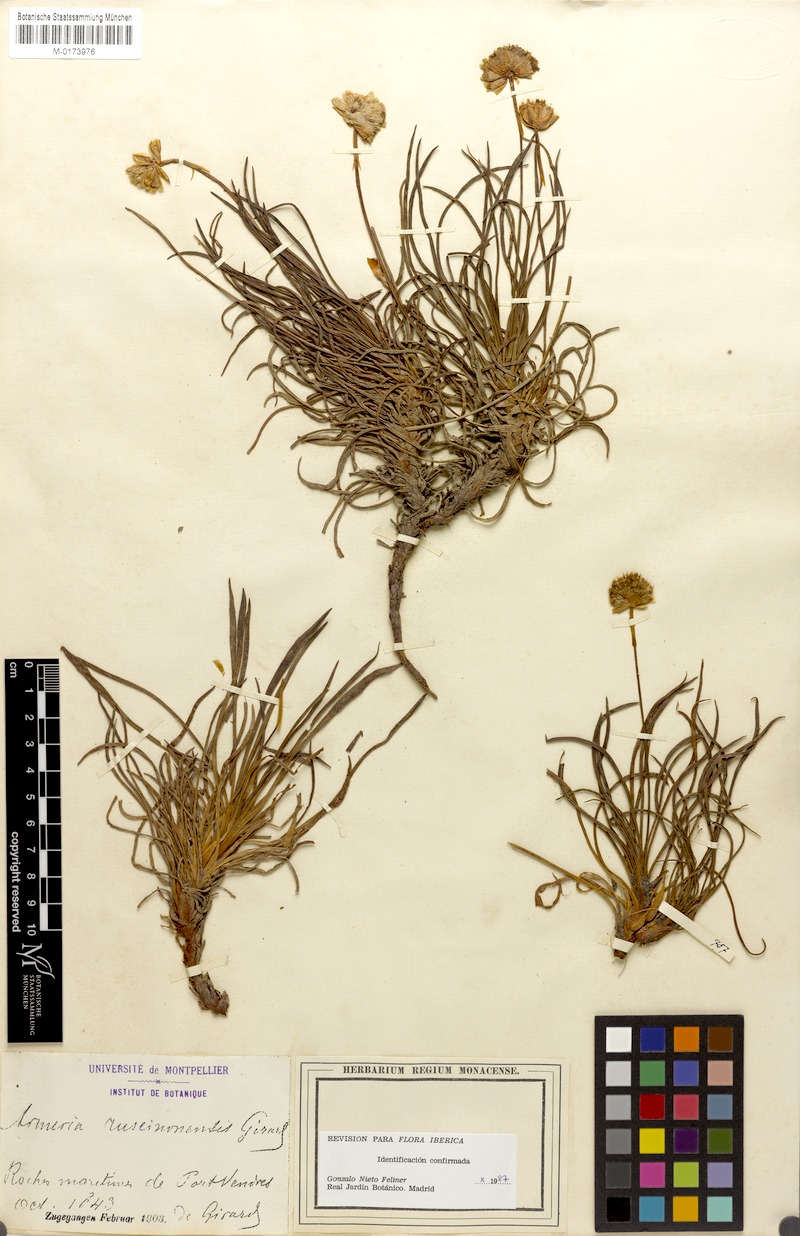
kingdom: Plantae
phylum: Tracheophyta
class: Magnoliopsida
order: Caryophyllales
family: Plumbaginaceae
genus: Armeria
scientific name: Armeria ruscinonensis
